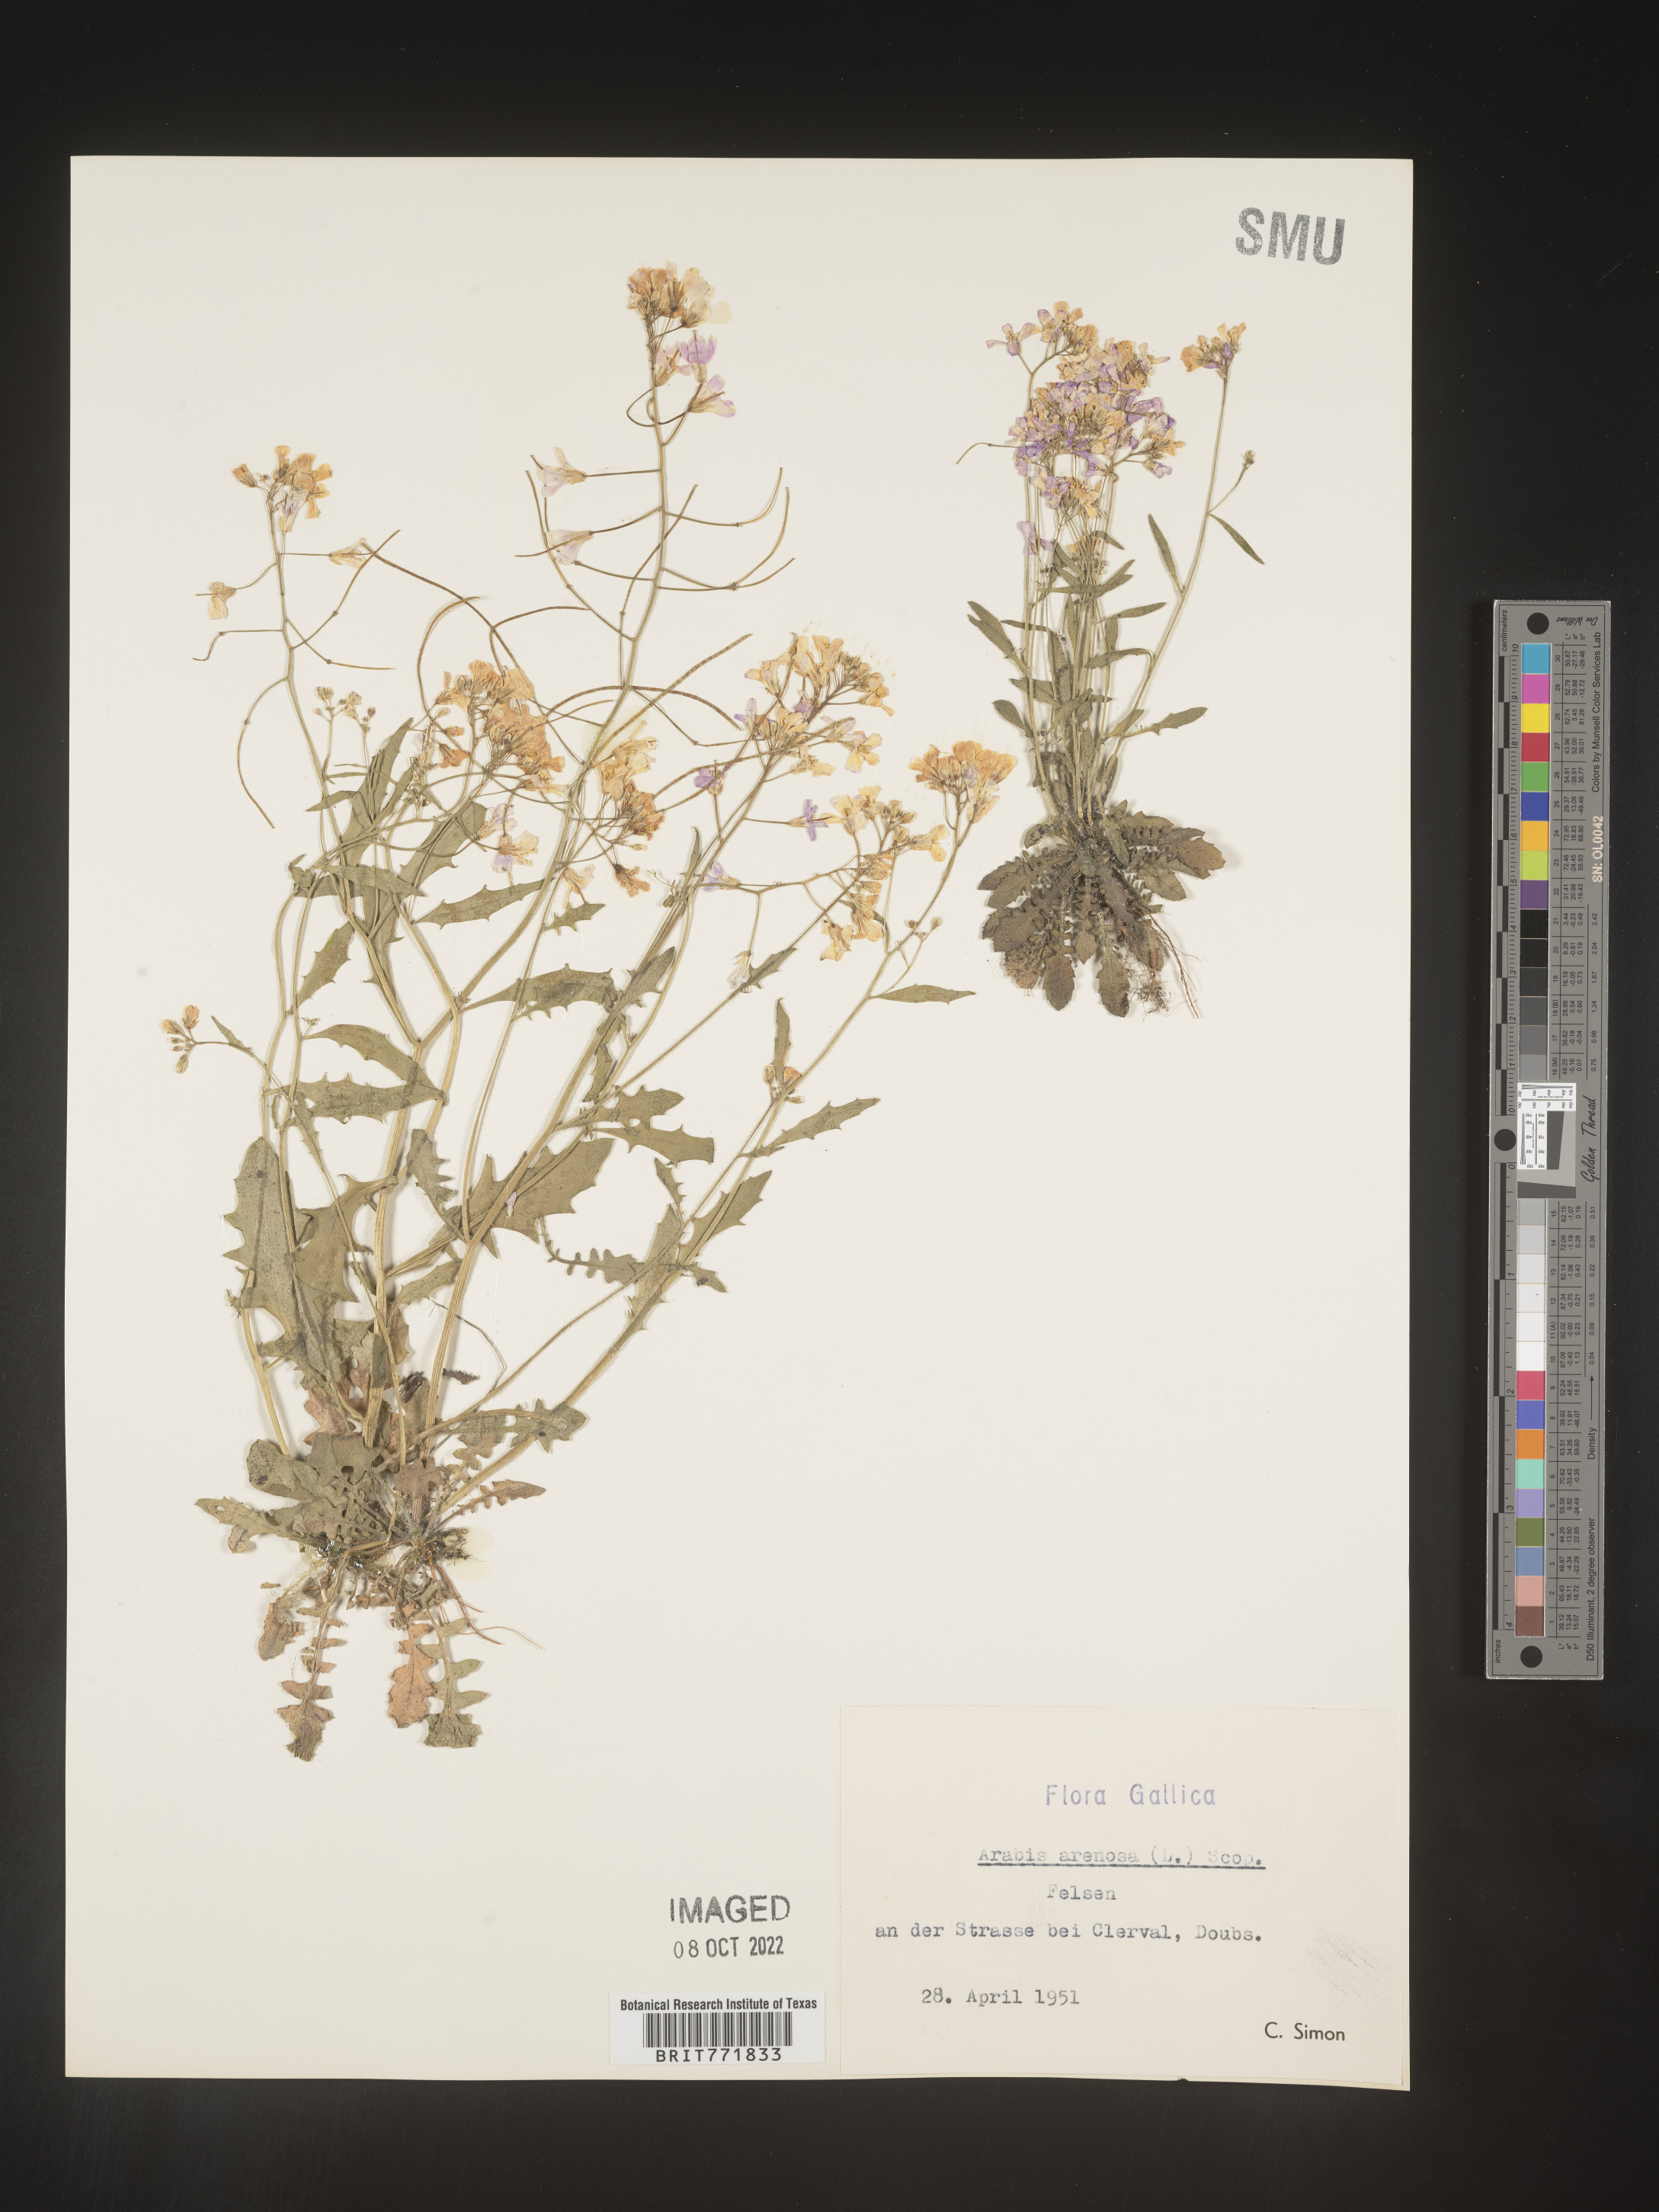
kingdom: Plantae
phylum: Tracheophyta
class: Magnoliopsida
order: Brassicales
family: Brassicaceae
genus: Arabis
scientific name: Arabis
